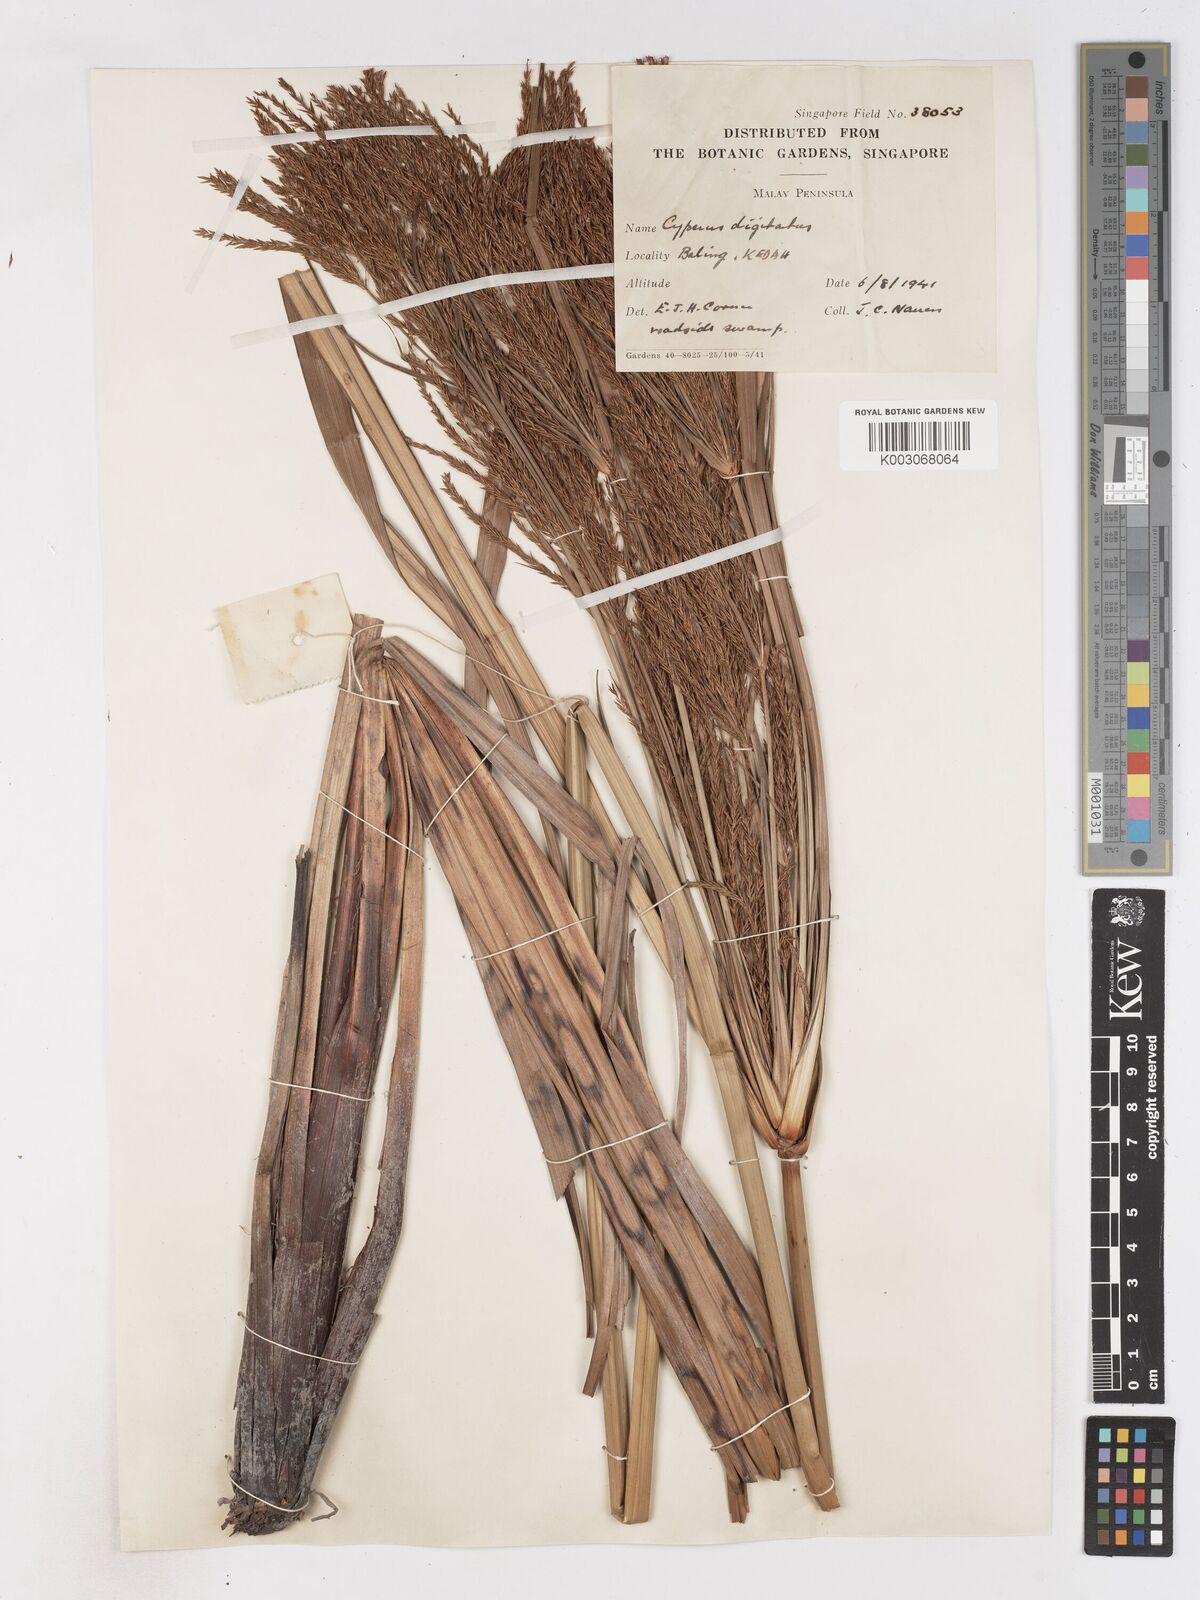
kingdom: Plantae
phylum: Tracheophyta
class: Liliopsida
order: Poales
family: Cyperaceae
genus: Cyperus
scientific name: Cyperus digitatus
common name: Finger flatsedge
